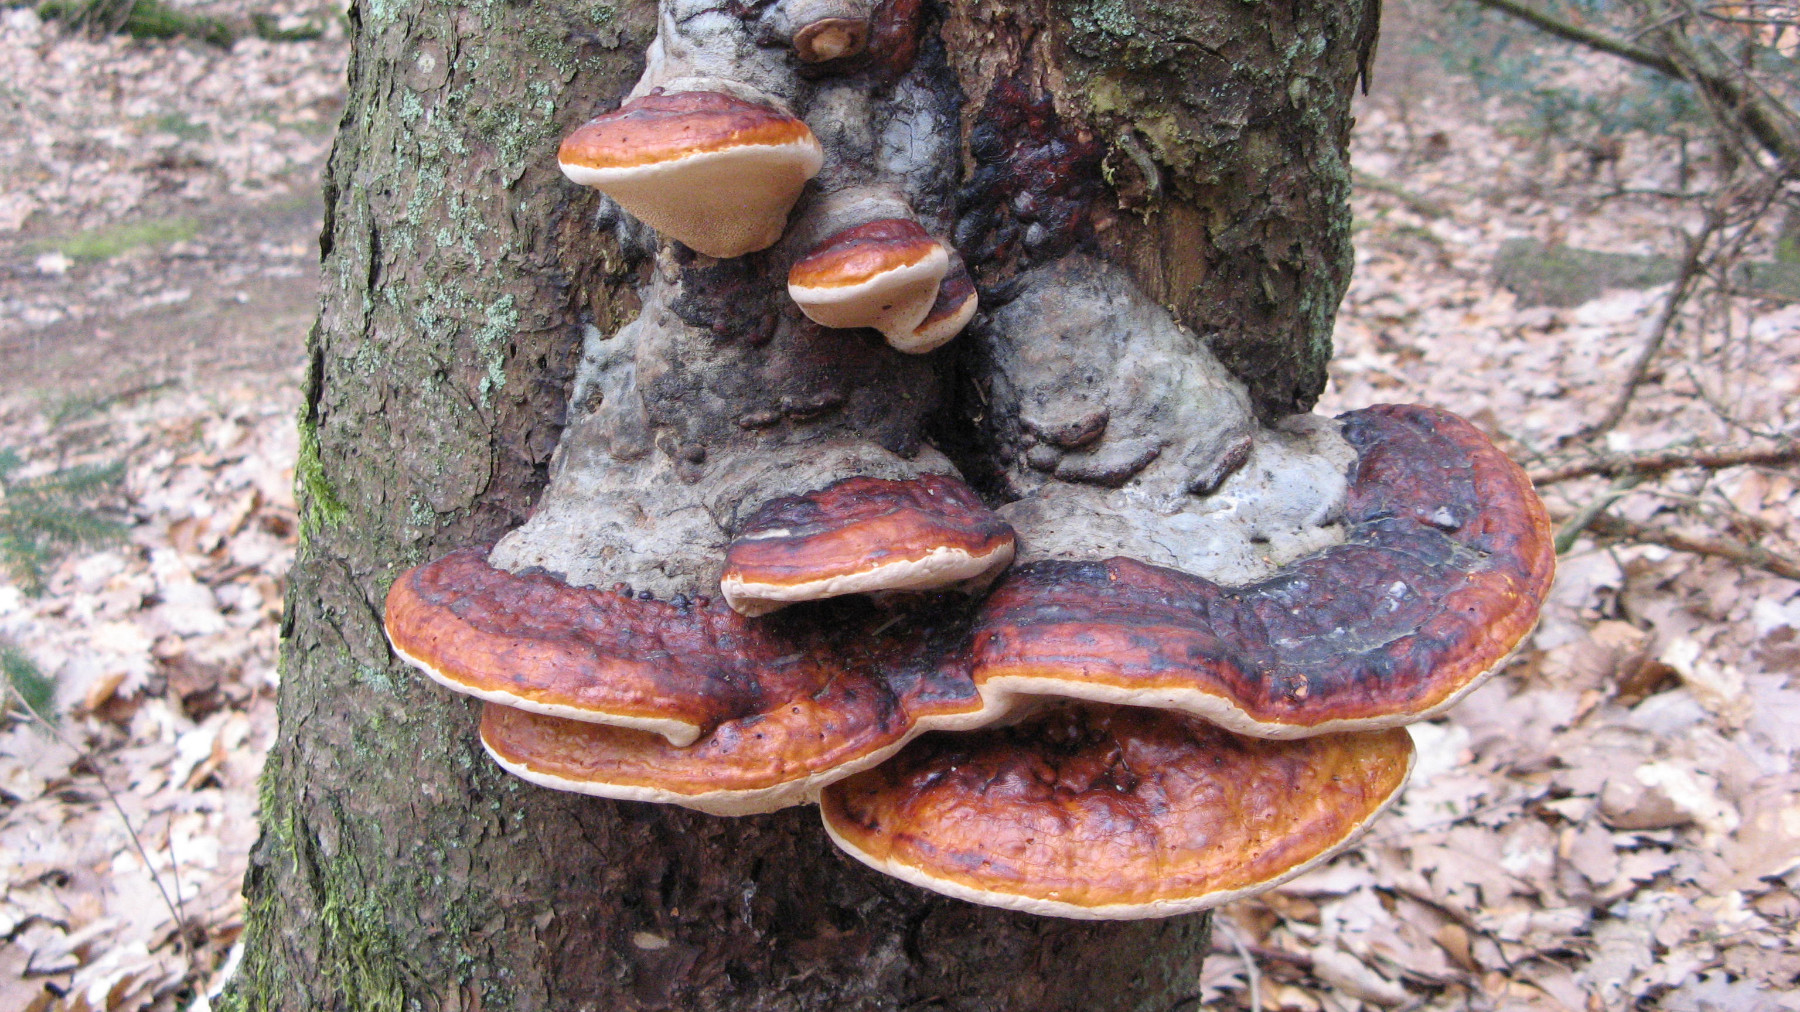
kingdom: Fungi
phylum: Basidiomycota
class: Agaricomycetes
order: Polyporales
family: Fomitopsidaceae
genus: Fomitopsis
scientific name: Fomitopsis pinicola
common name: randbæltet hovporesvamp
